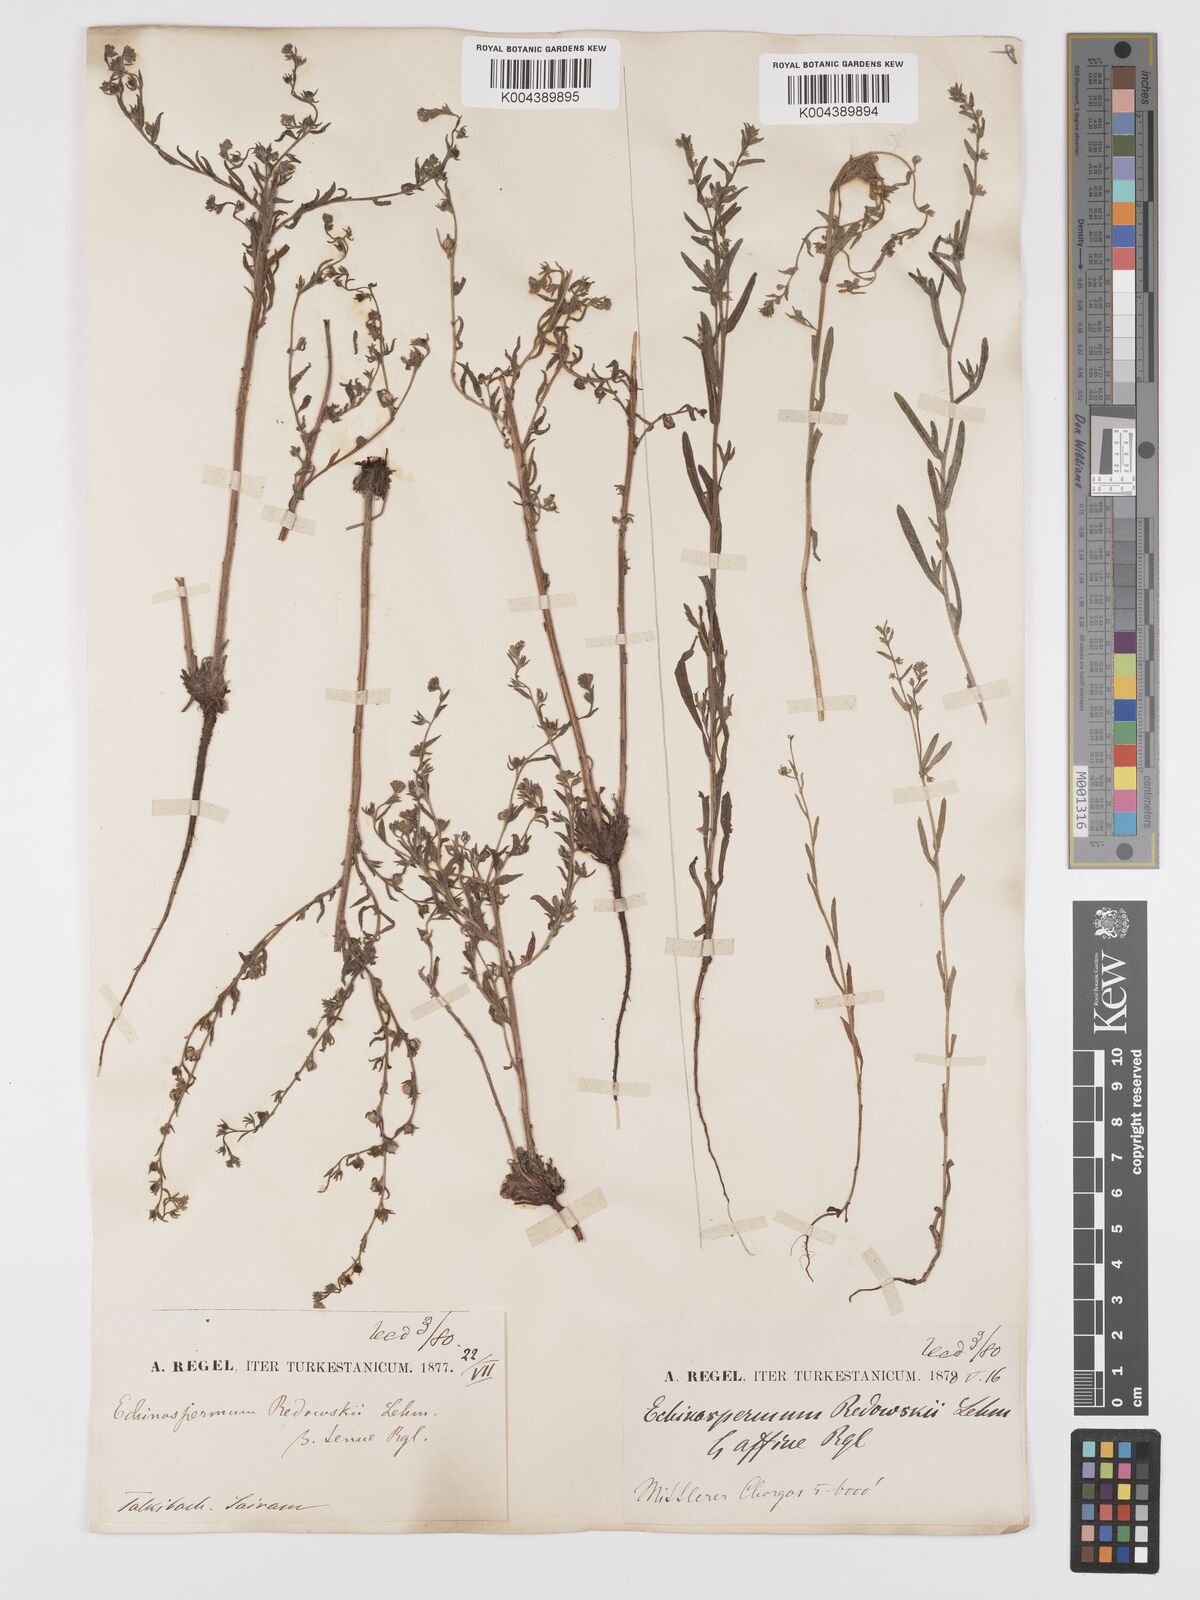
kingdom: Plantae
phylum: Tracheophyta
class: Magnoliopsida
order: Boraginales
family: Boraginaceae
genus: Lappula
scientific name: Lappula redowskii
